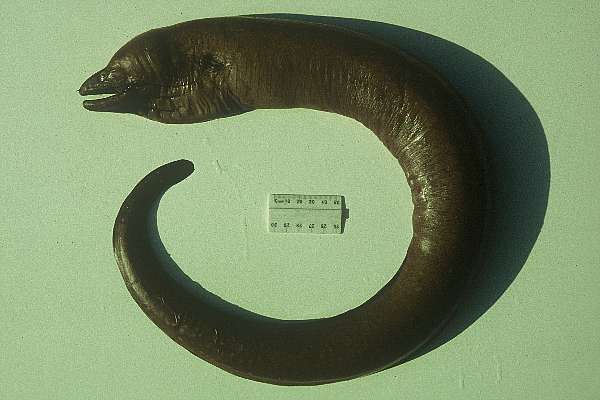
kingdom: Animalia
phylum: Chordata
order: Anguilliformes
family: Muraenidae
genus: Gymnothorax
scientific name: Gymnothorax johnsoni
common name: Whitespotted moray
